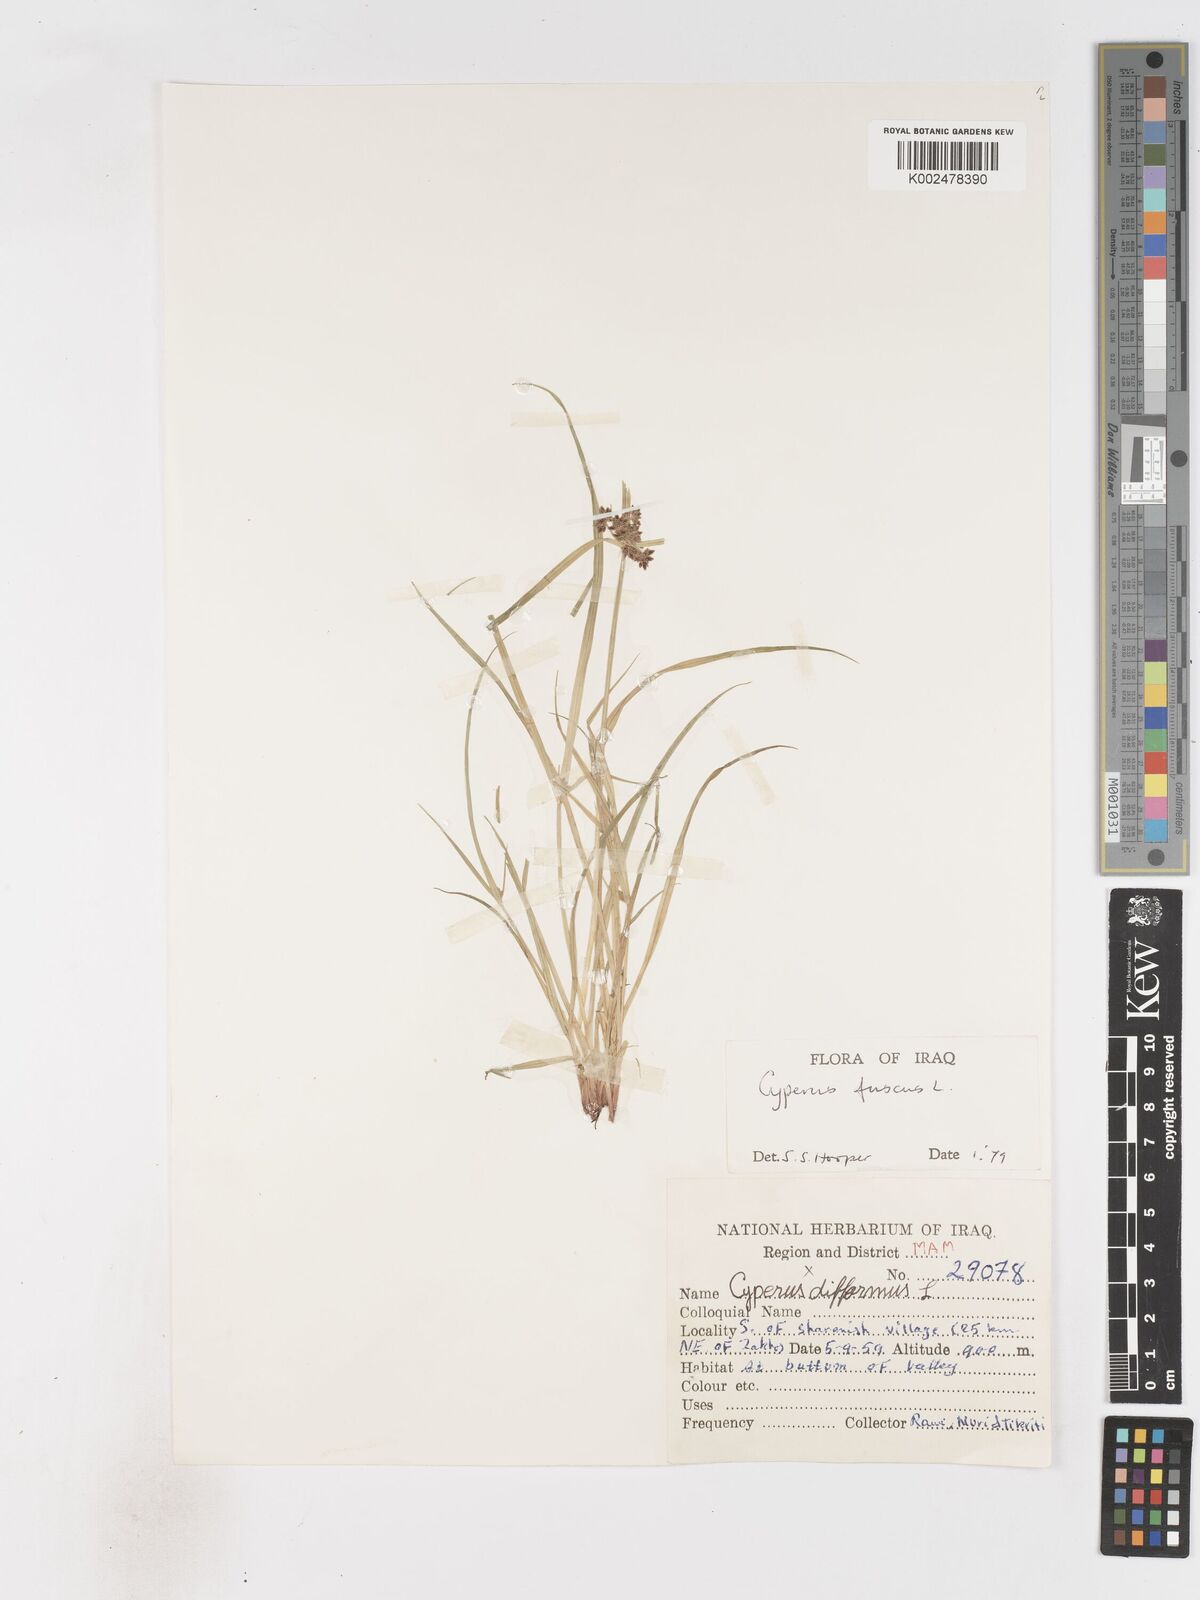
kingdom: Plantae
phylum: Tracheophyta
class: Liliopsida
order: Poales
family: Cyperaceae
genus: Cyperus
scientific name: Cyperus fuscus
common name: Brown galingale
